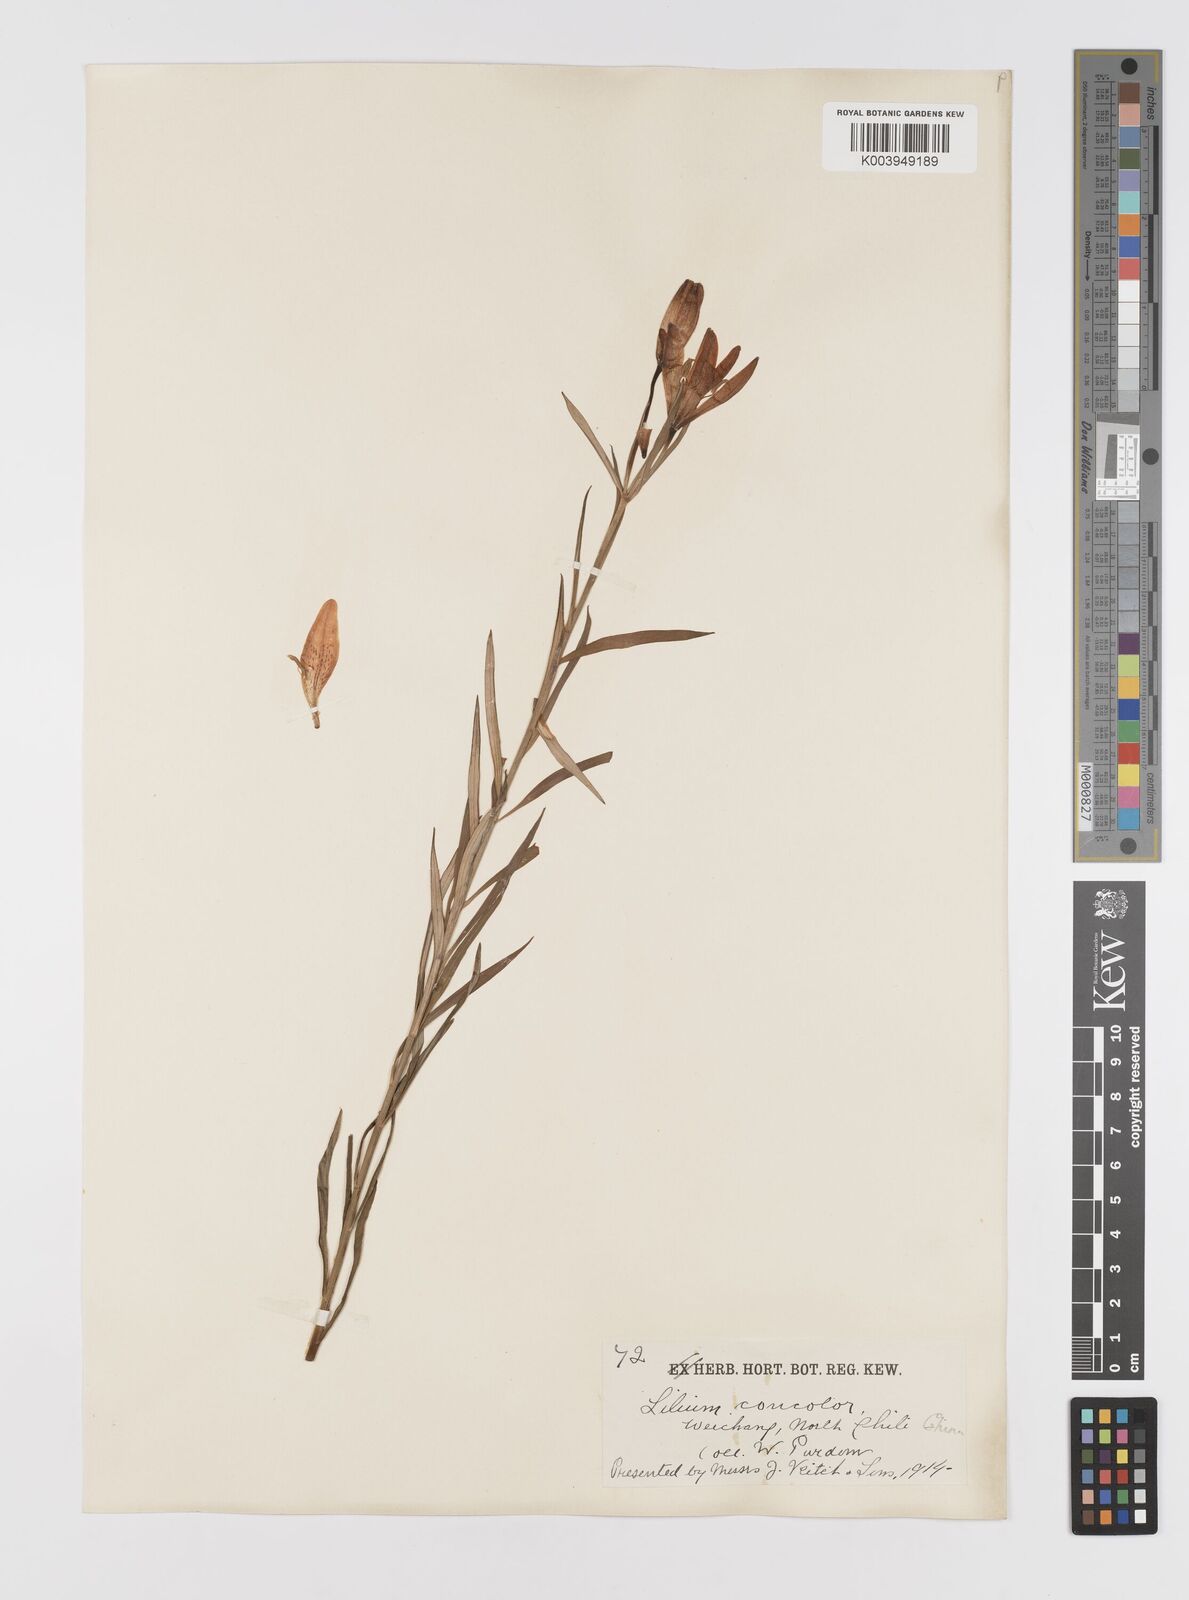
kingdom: Plantae
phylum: Tracheophyta
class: Liliopsida
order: Liliales
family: Liliaceae
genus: Lilium
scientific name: Lilium concolor
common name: Morning-star lily
